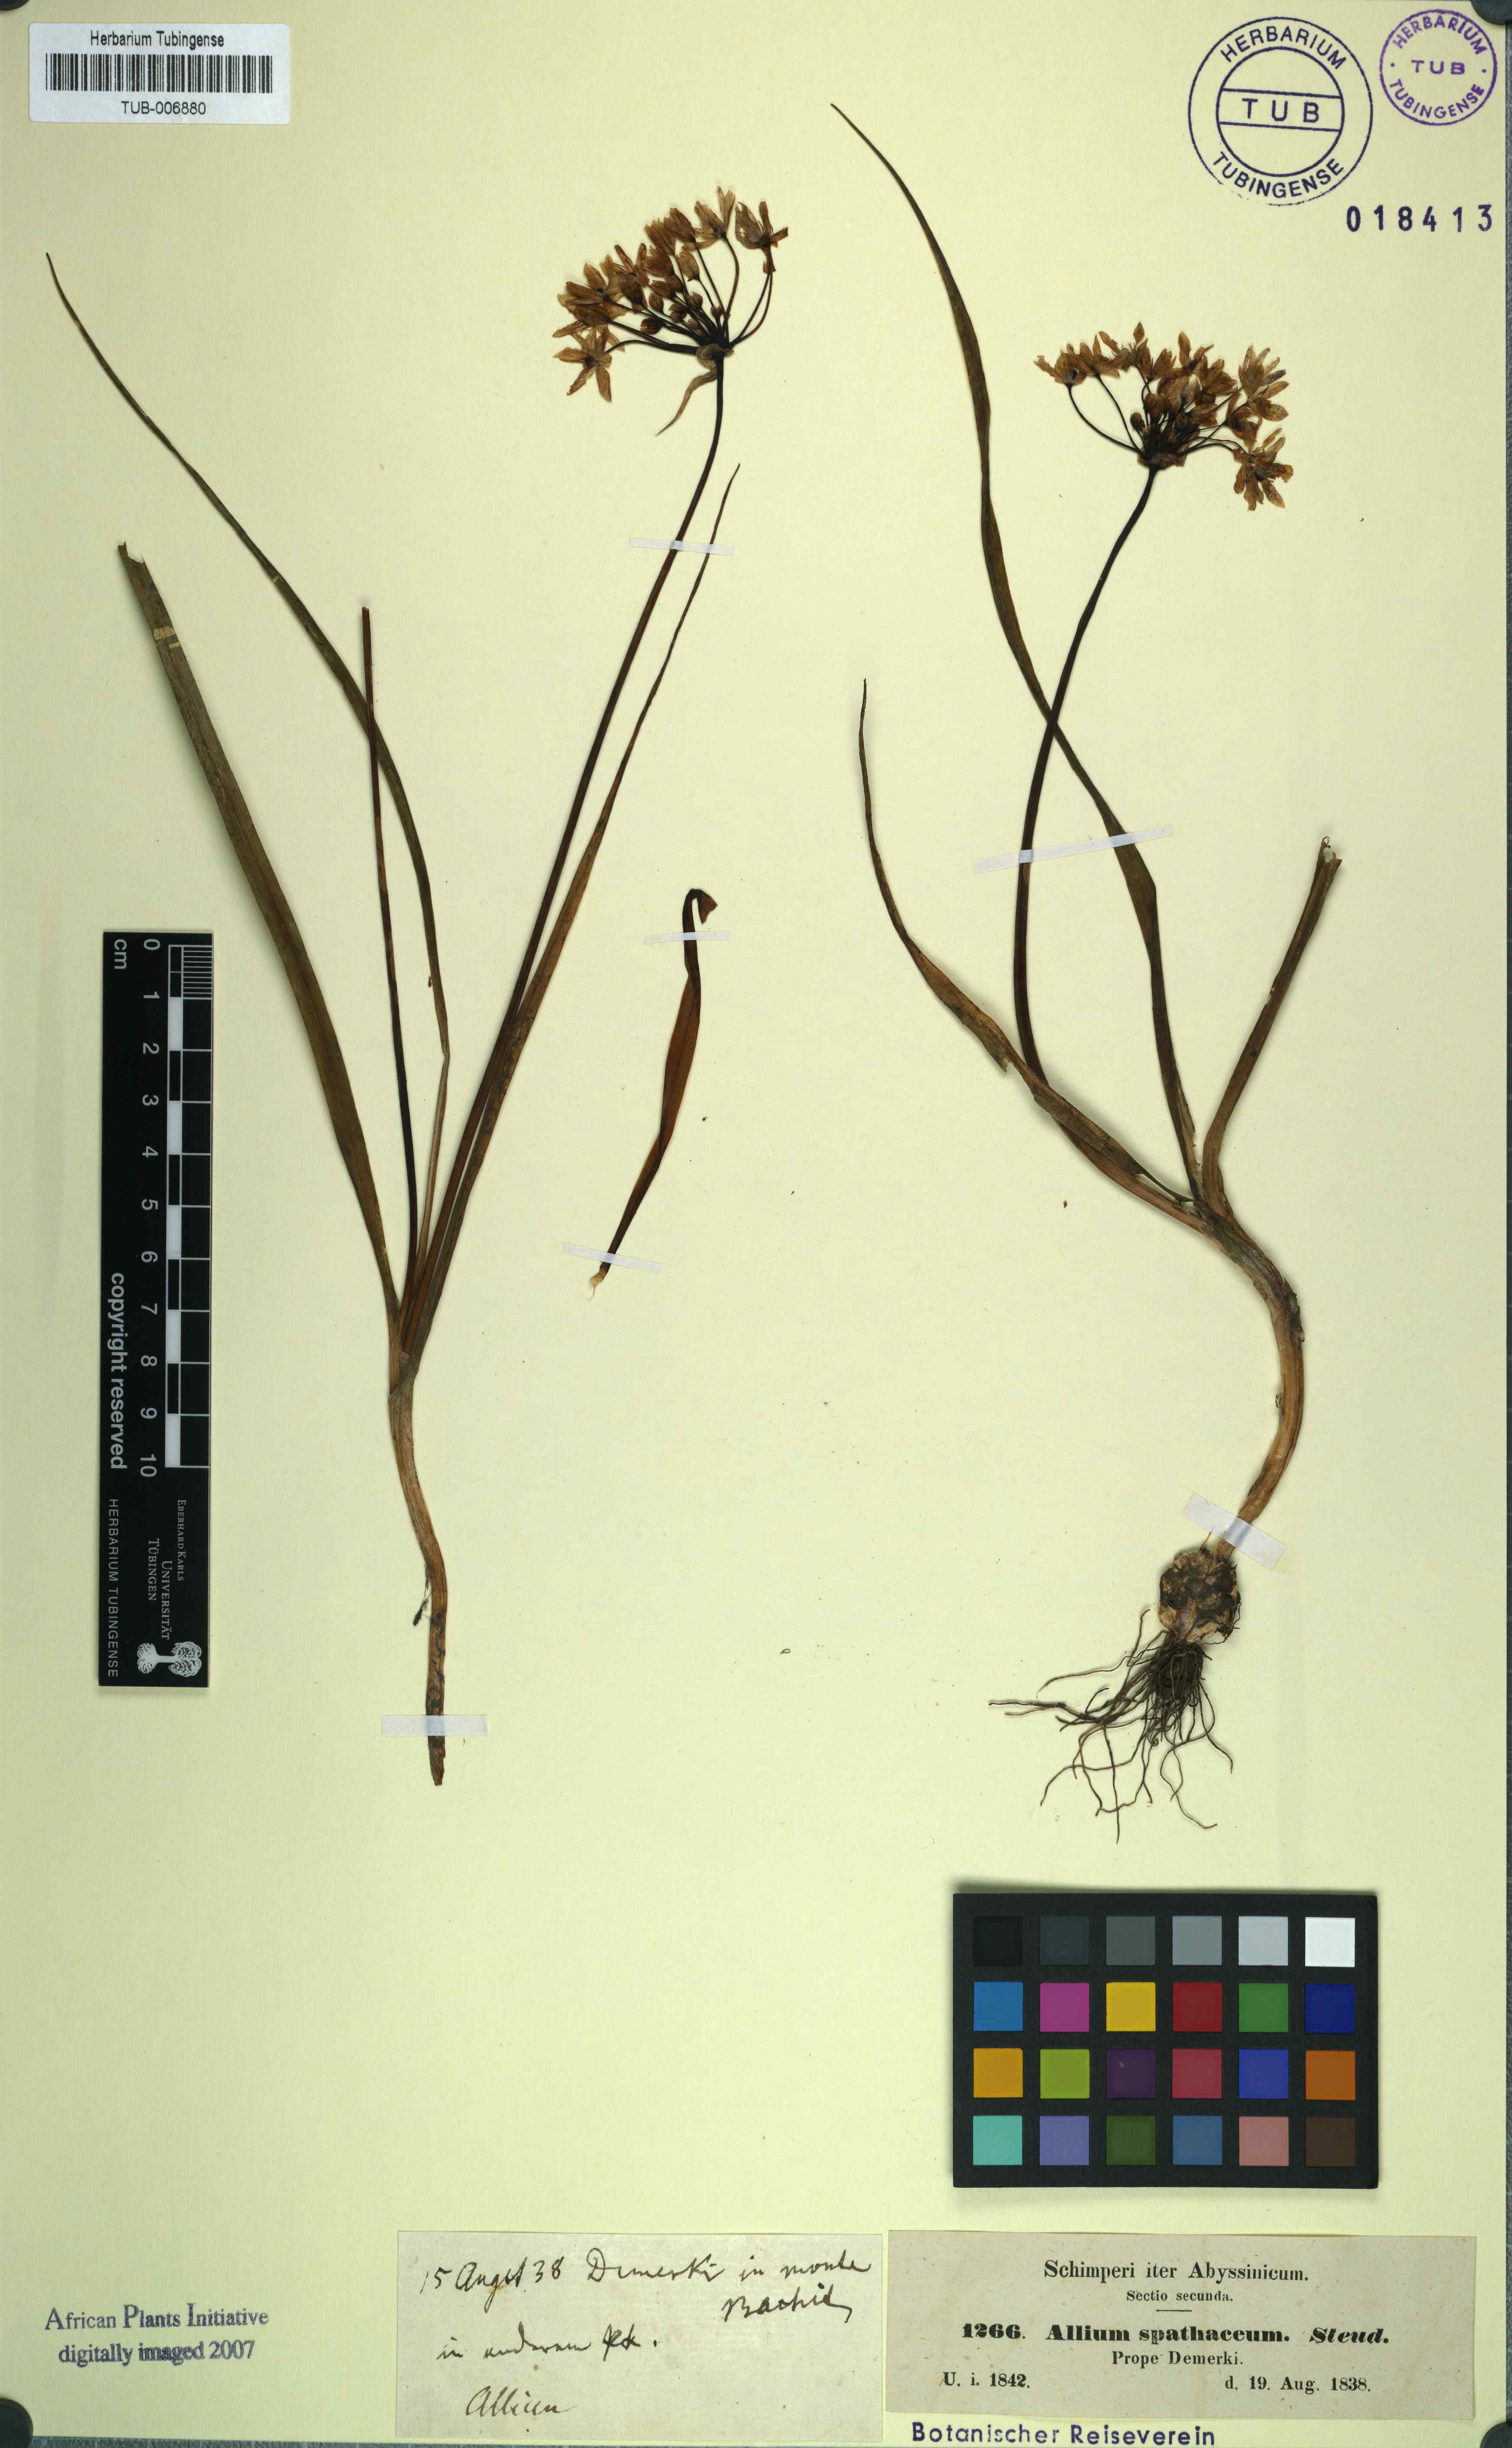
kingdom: Plantae
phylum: Tracheophyta
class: Liliopsida
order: Asparagales
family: Amaryllidaceae
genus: Allium
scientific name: Allium subhirsutum
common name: Hairy garlic
